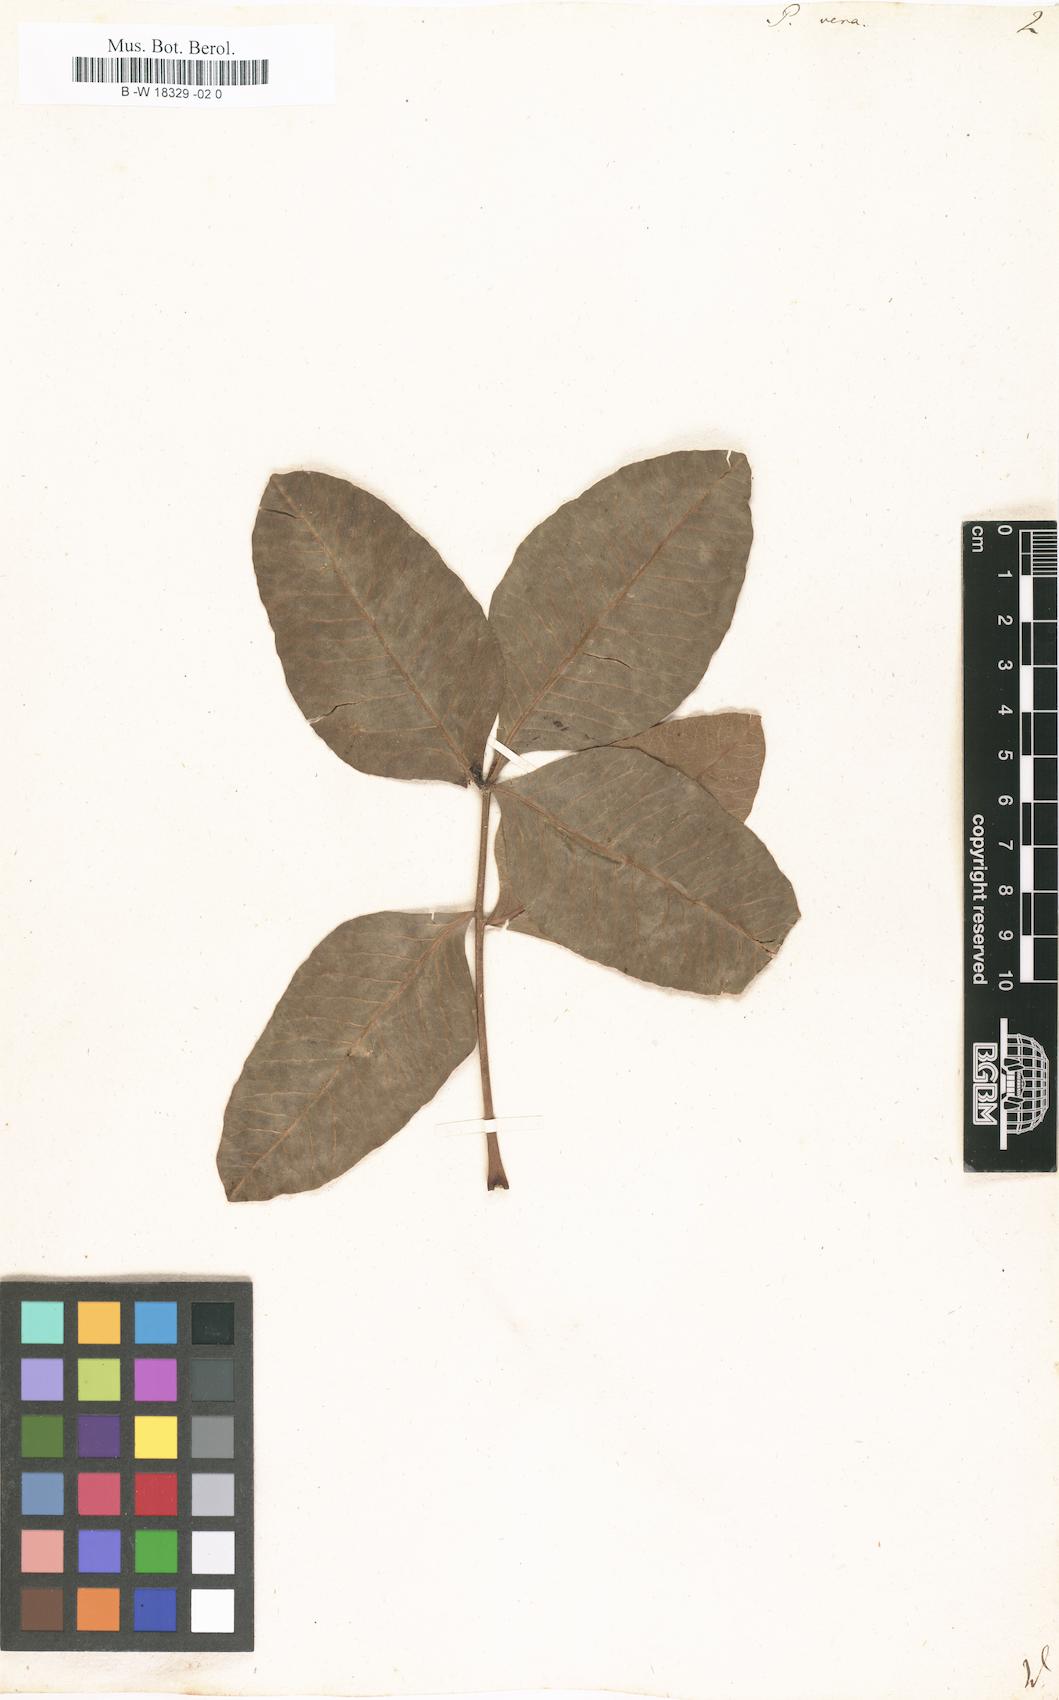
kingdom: Plantae
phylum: Tracheophyta
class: Magnoliopsida
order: Sapindales
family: Anacardiaceae
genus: Pistacia
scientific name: Pistacia vera
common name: Pistachio
